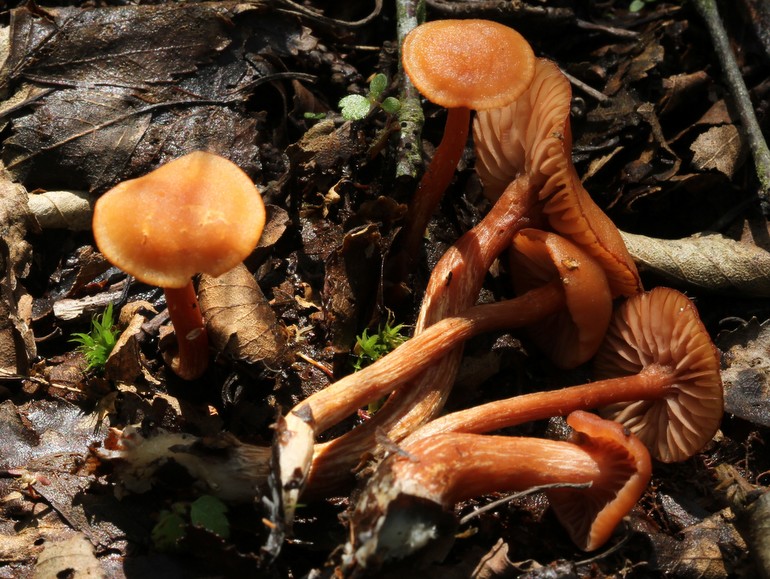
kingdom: Fungi
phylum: Basidiomycota
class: Agaricomycetes
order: Agaricales
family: Hydnangiaceae
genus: Laccaria
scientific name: Laccaria laccata
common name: rød ametysthat
